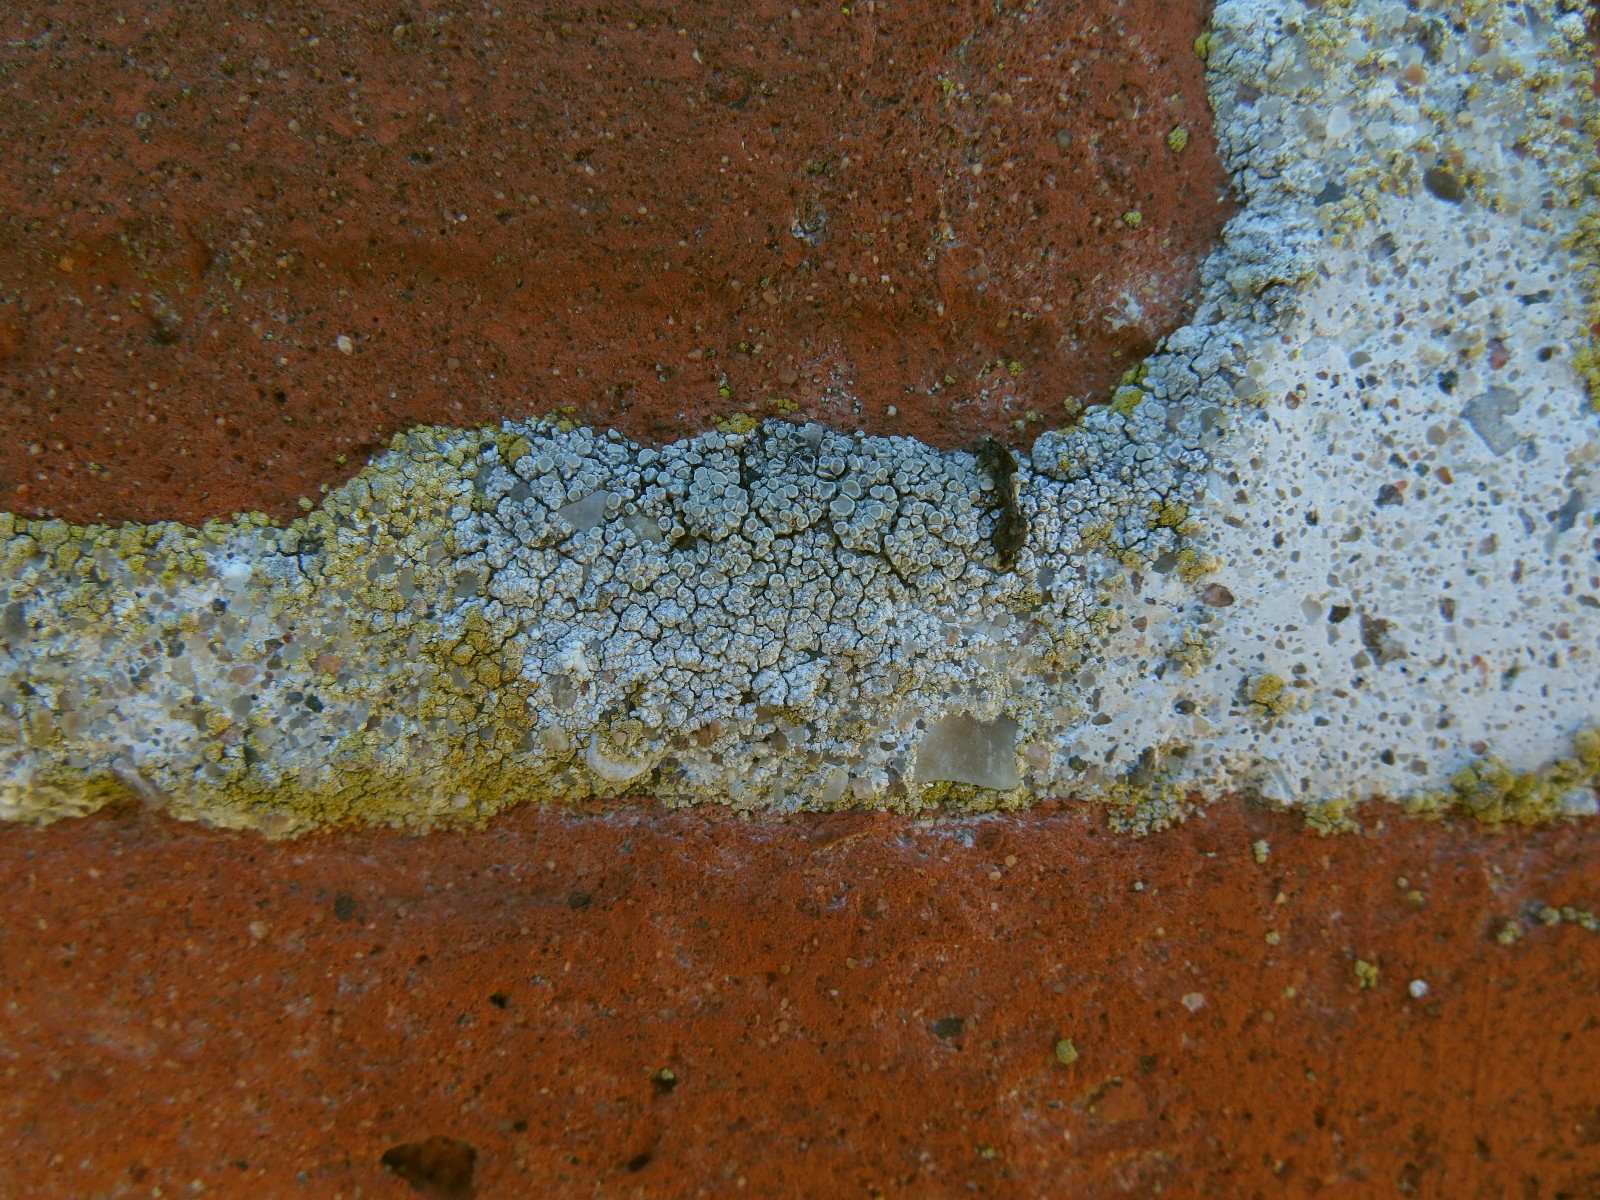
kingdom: Fungi
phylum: Ascomycota
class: Lecanoromycetes
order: Lecanorales
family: Lecanoraceae
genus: Polyozosia
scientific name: Polyozosia albescens
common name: cement-kantskivelav
